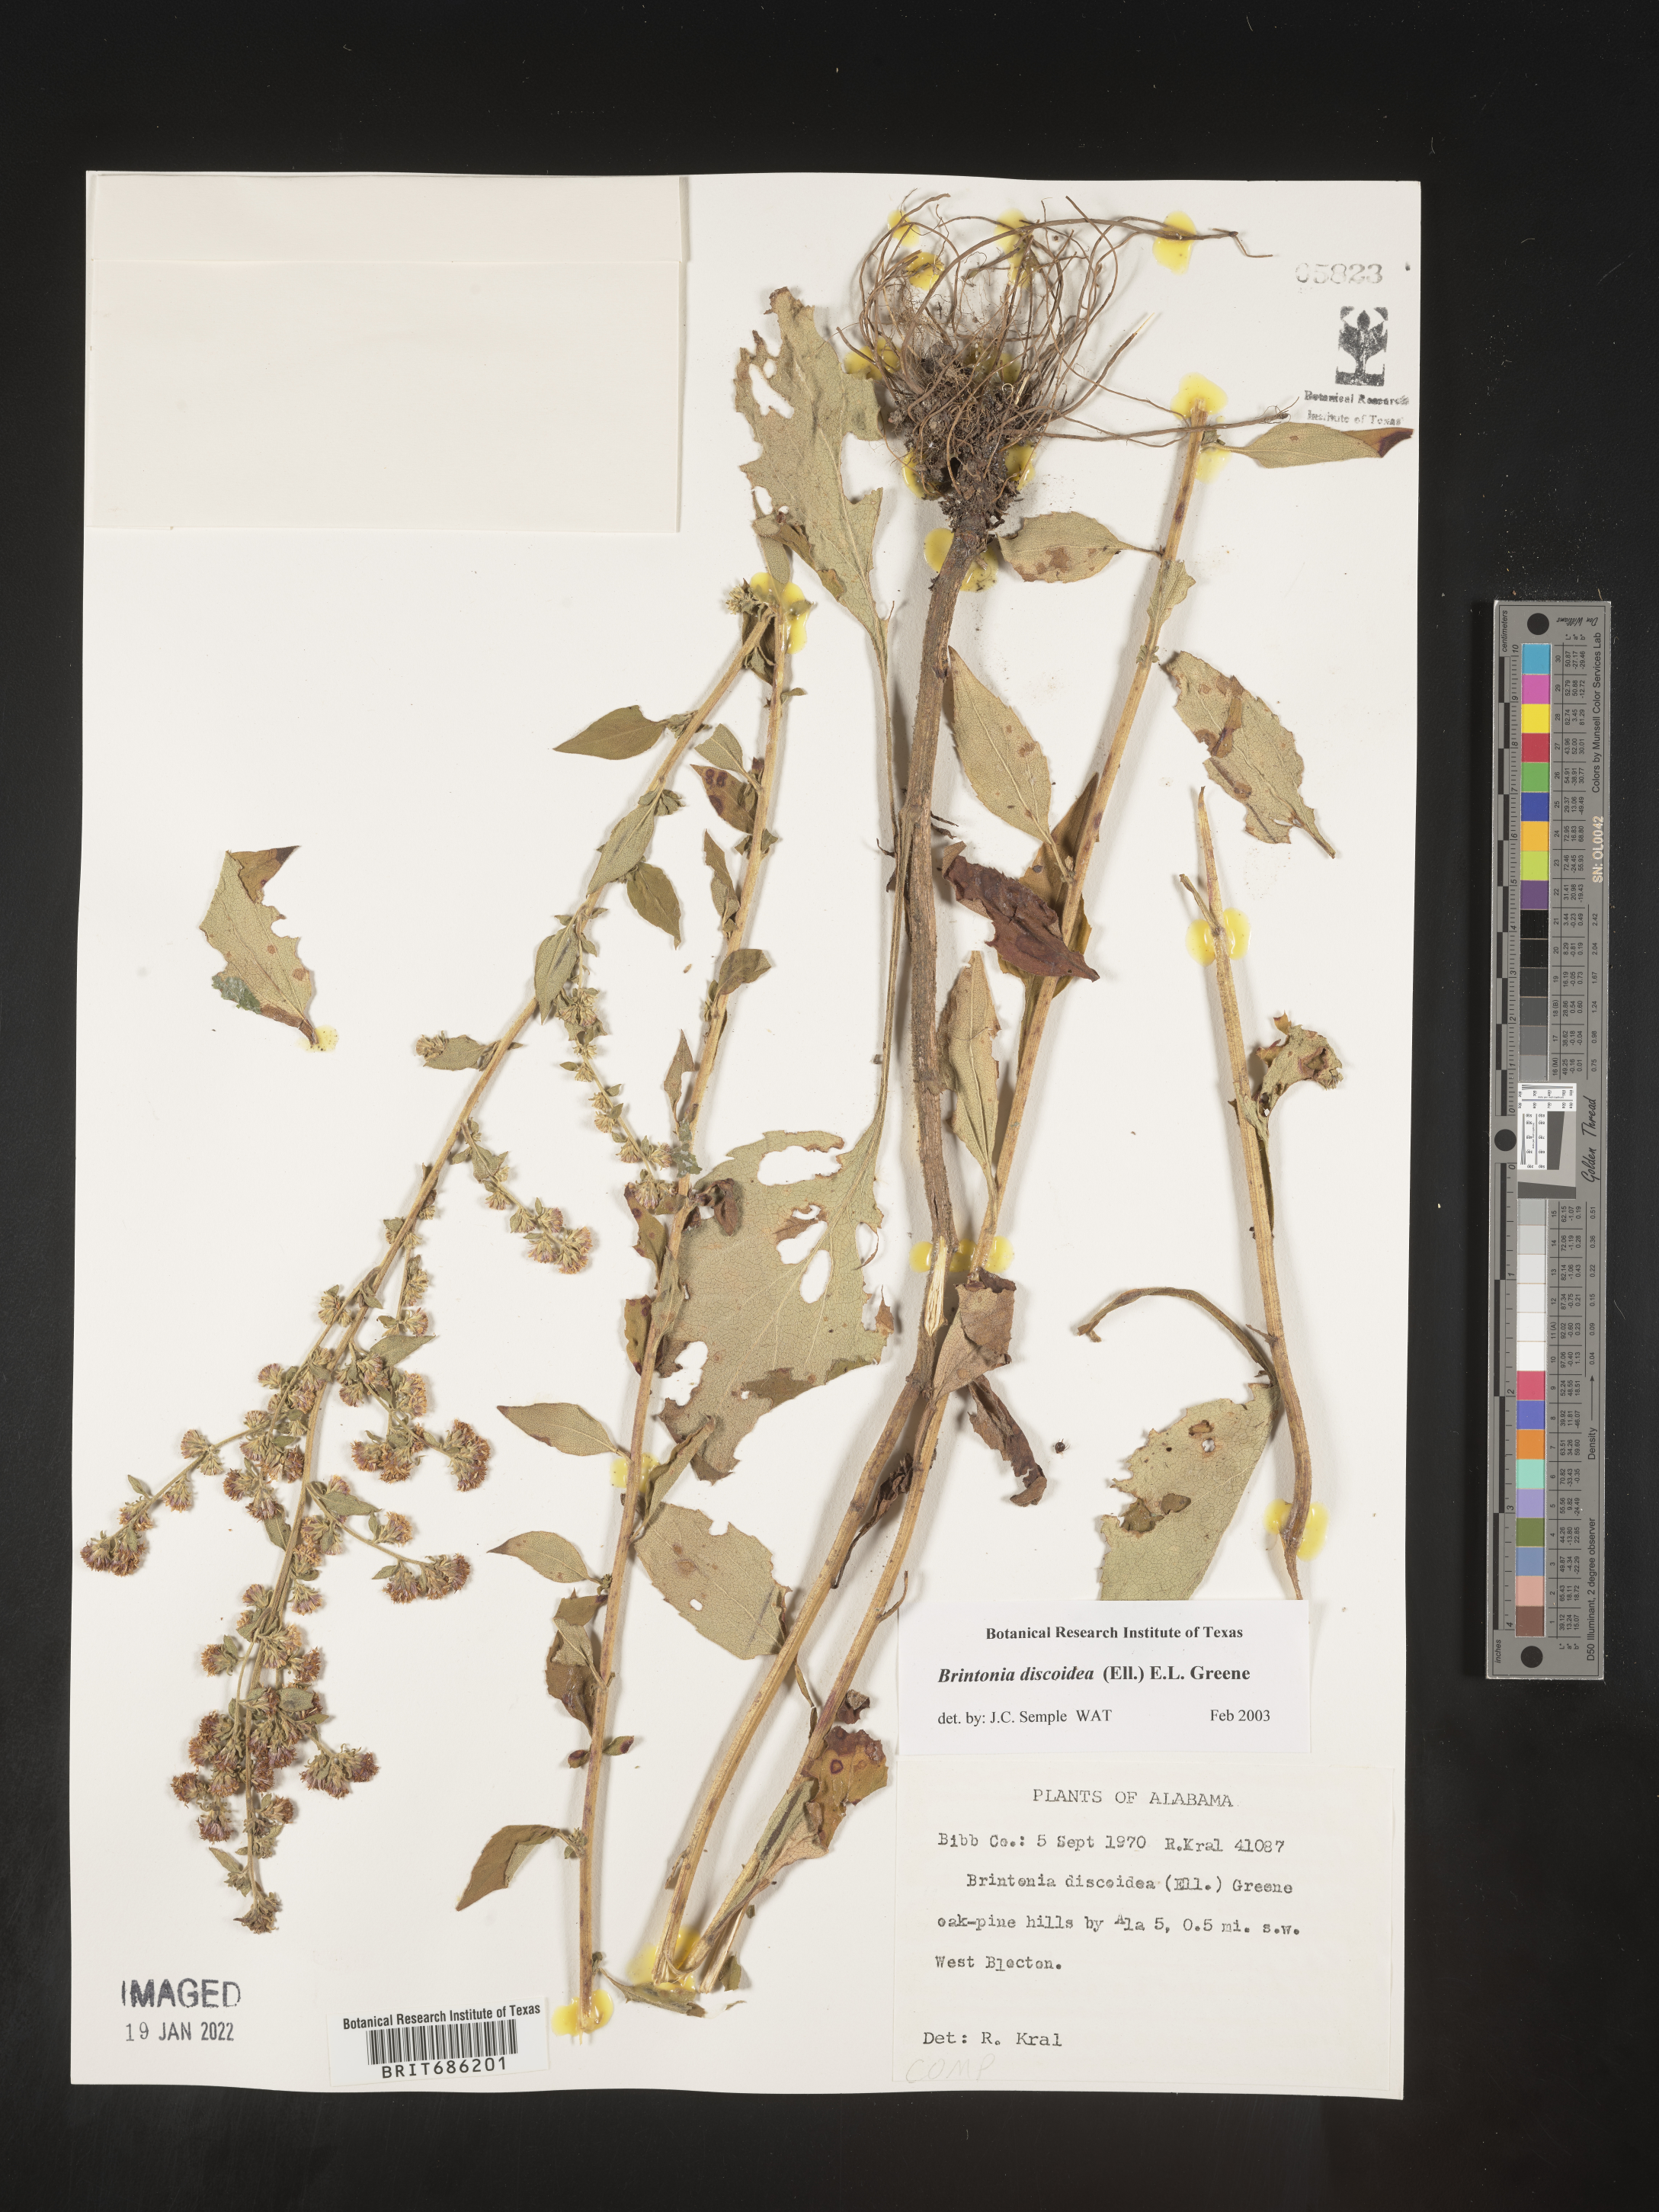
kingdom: Plantae
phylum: Tracheophyta
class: Magnoliopsida
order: Asterales
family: Asteraceae
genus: Solidago
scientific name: Solidago discoidea
